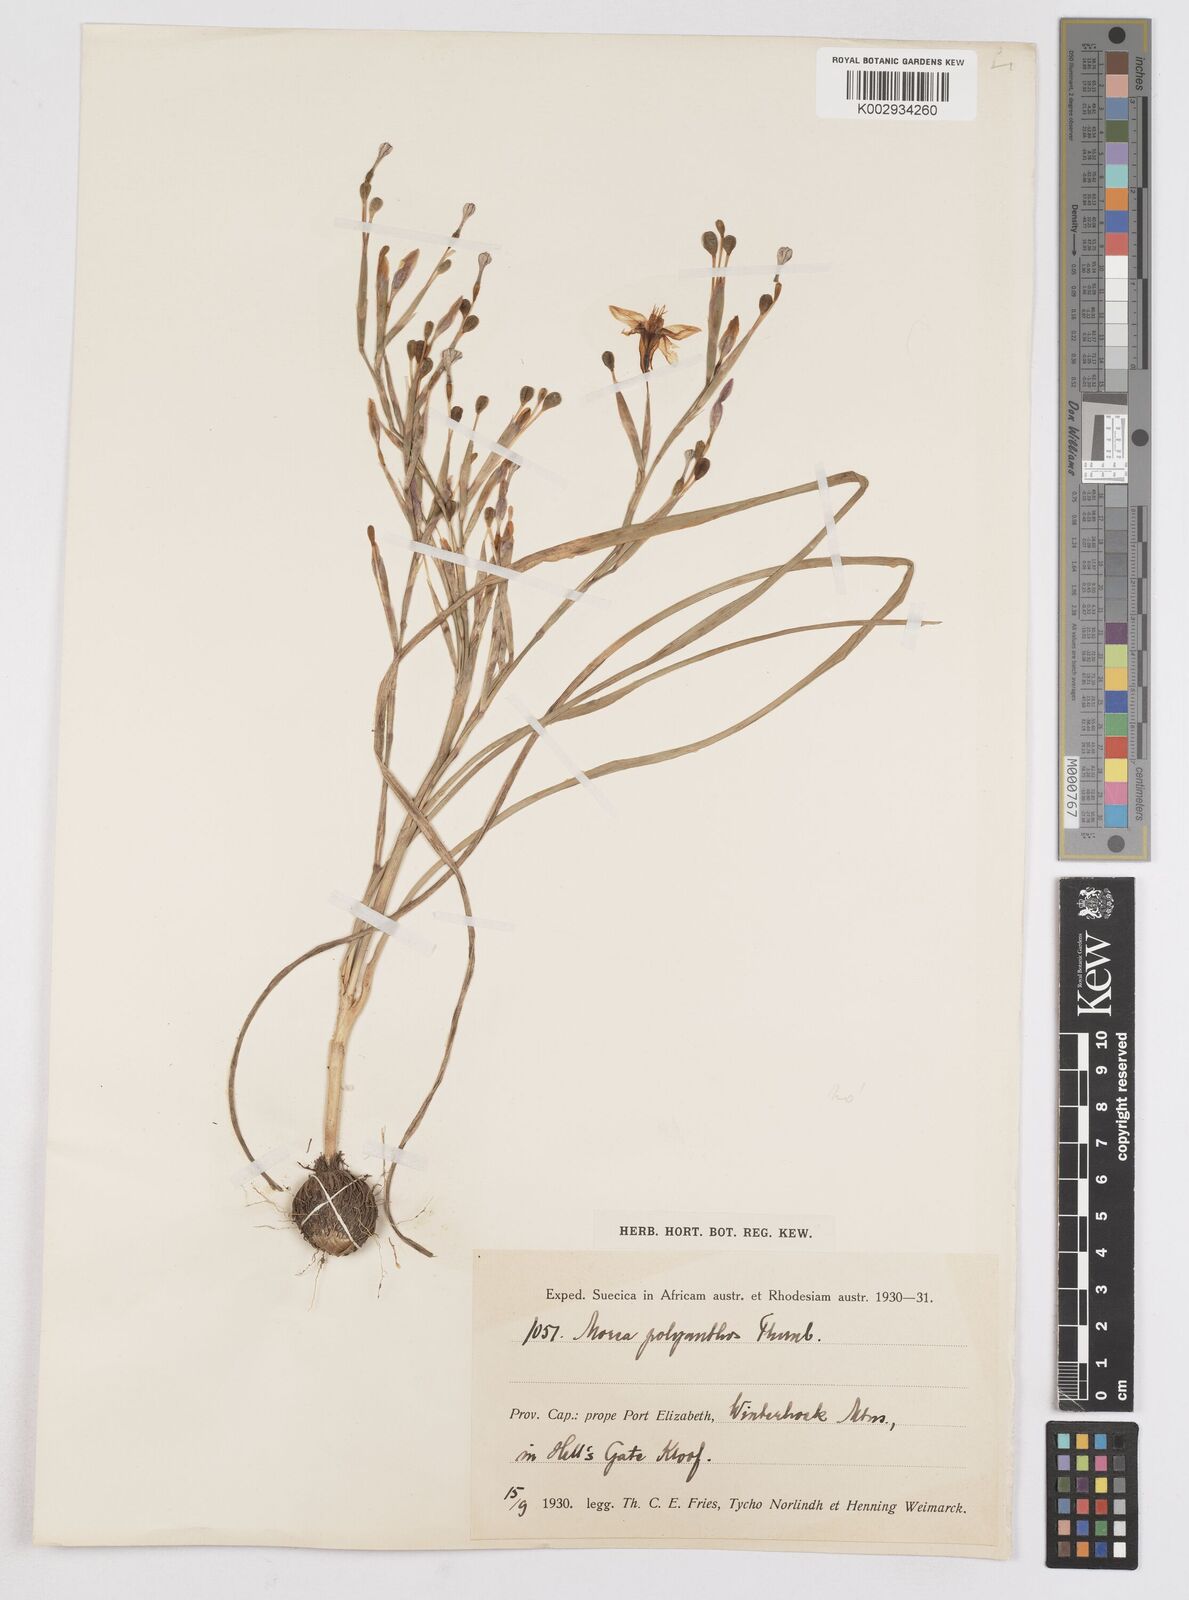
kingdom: Plantae
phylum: Tracheophyta
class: Liliopsida
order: Asparagales
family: Iridaceae
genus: Moraea
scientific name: Moraea bipartita
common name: Blue tulp
